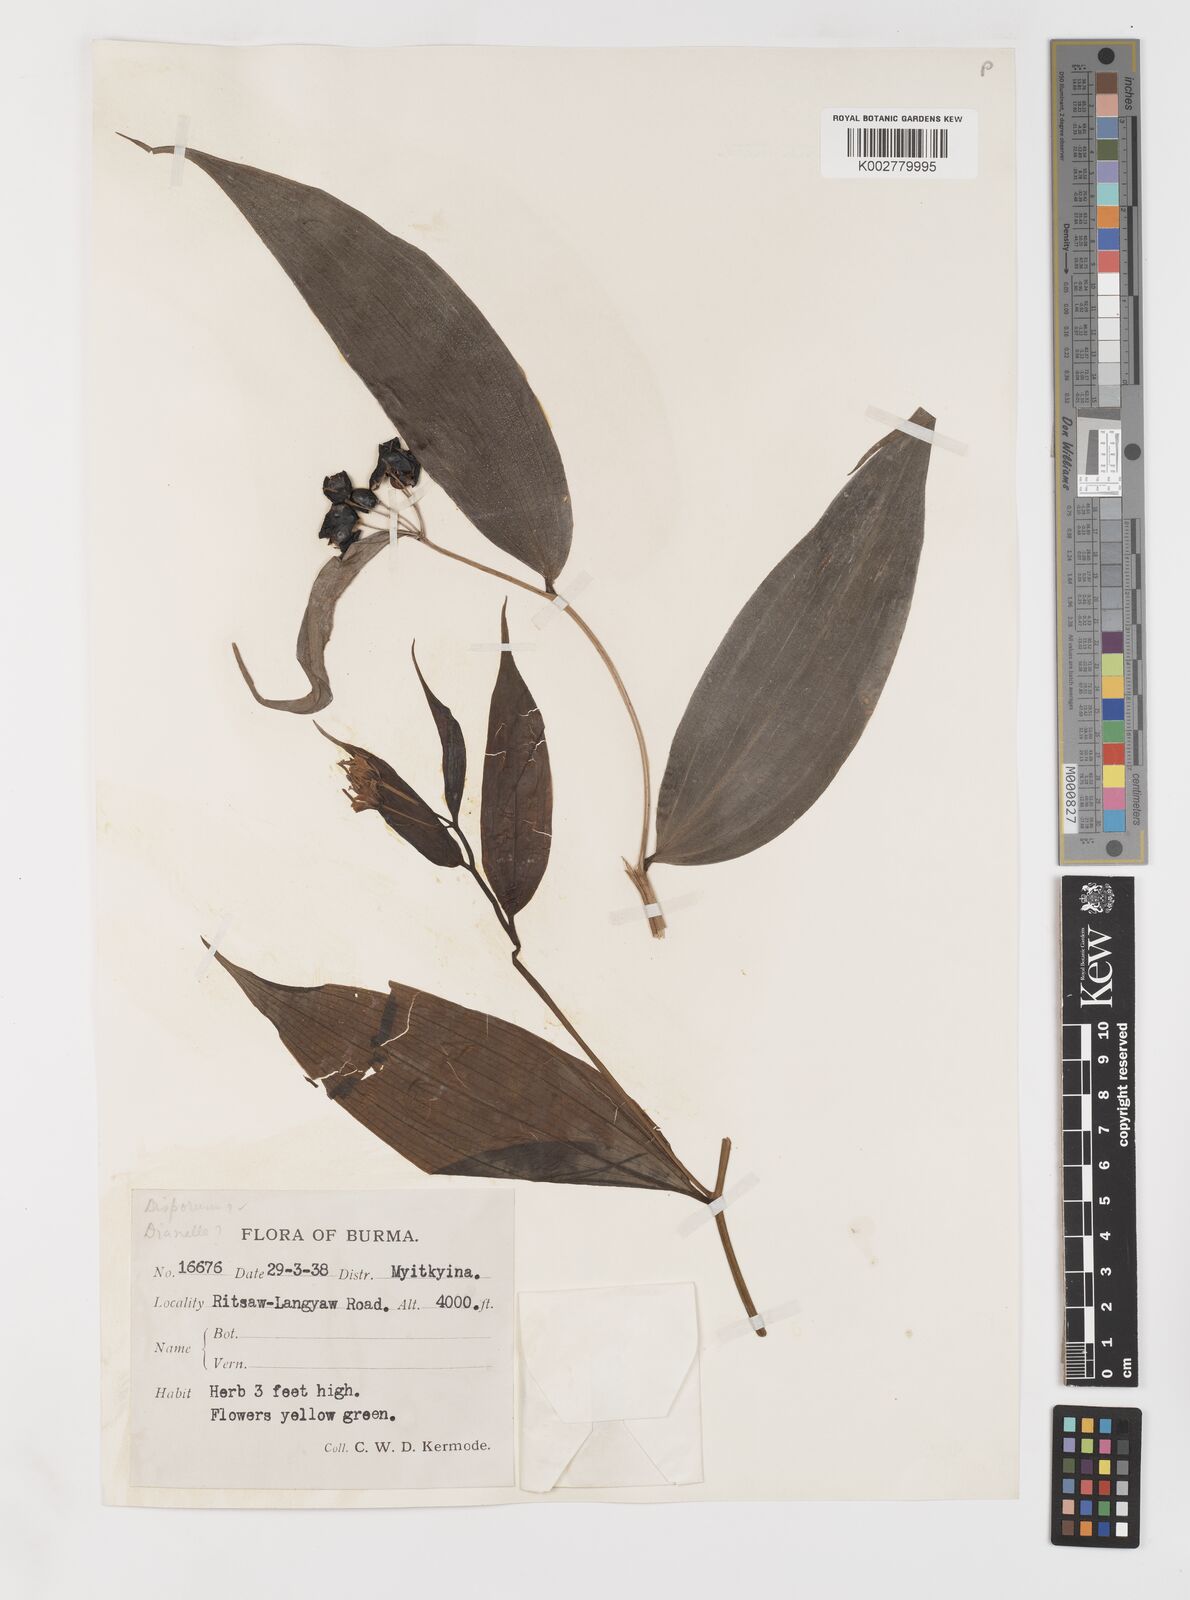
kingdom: Plantae
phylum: Tracheophyta
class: Liliopsida
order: Liliales
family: Colchicaceae
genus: Disporum
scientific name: Disporum
